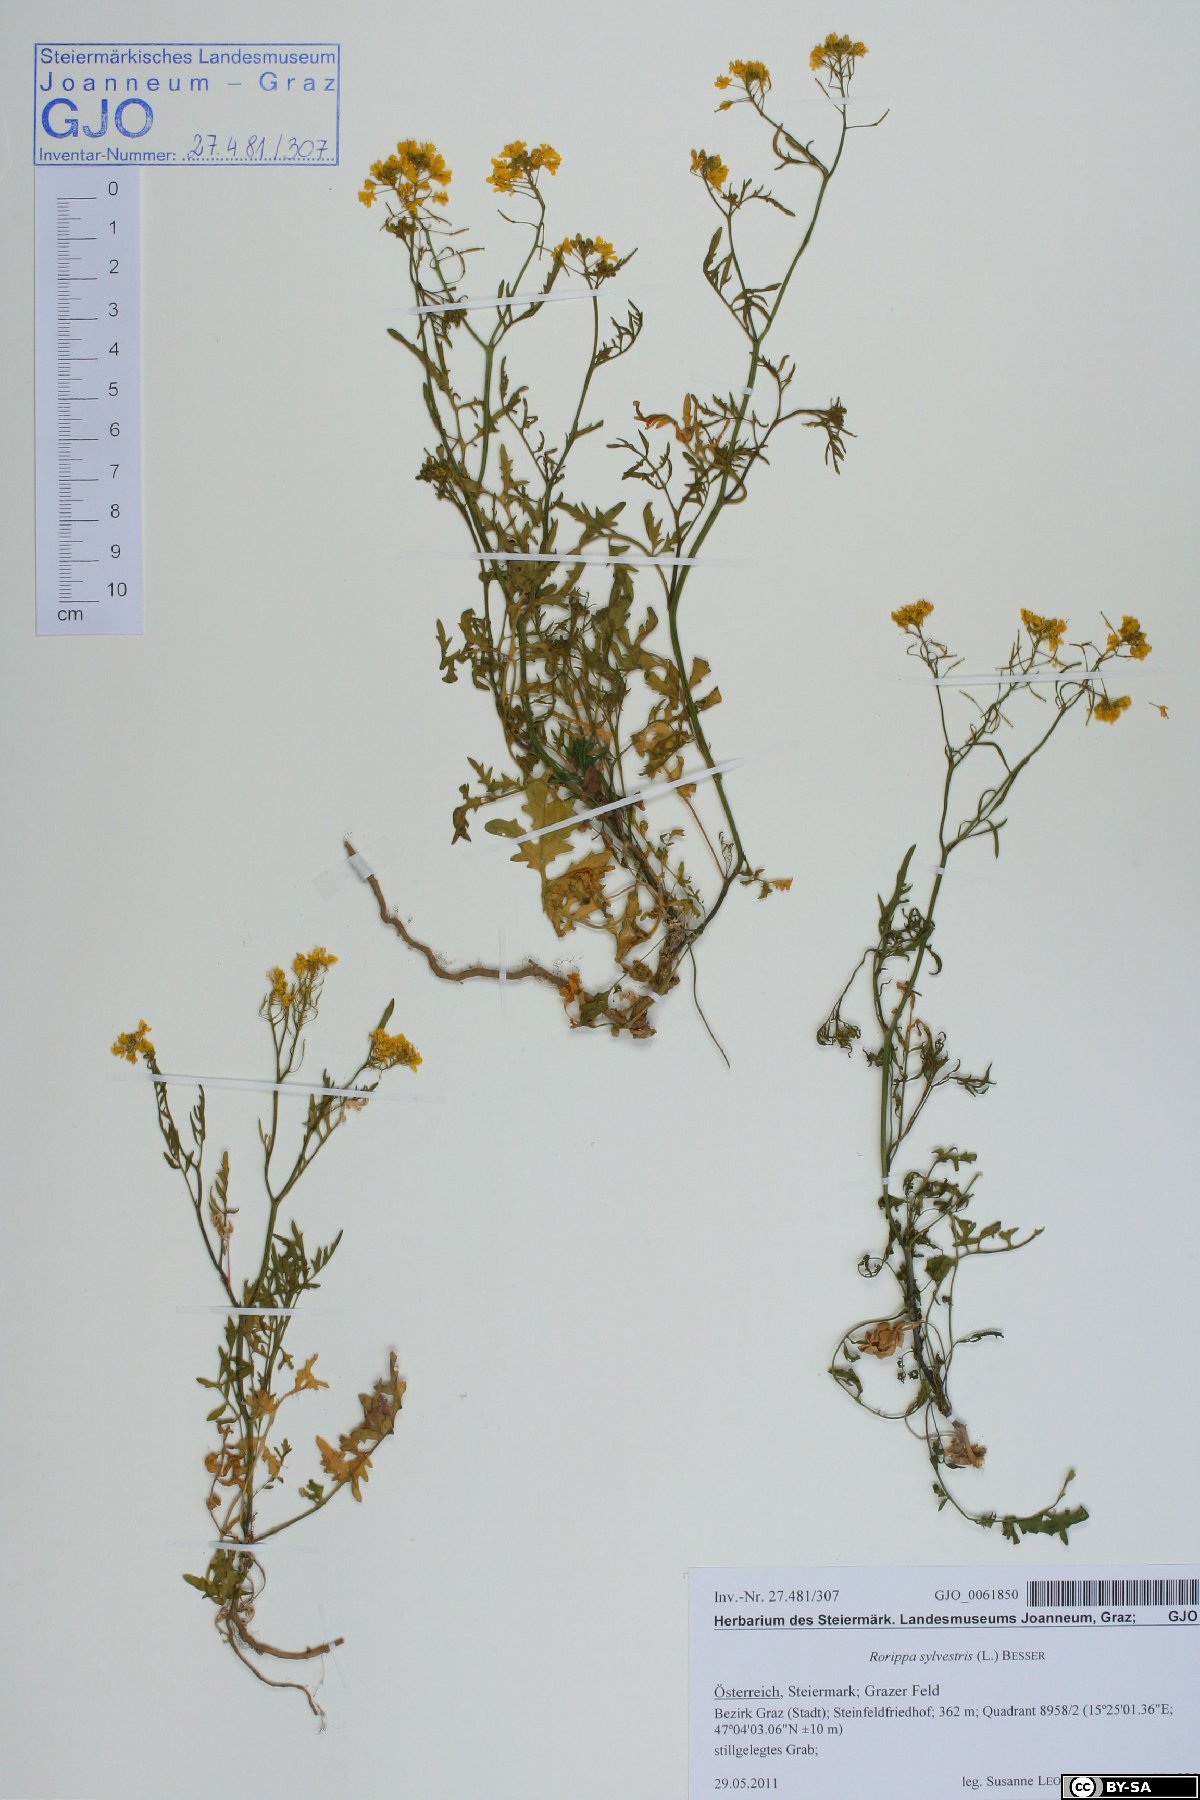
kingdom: Plantae
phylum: Tracheophyta
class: Magnoliopsida
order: Brassicales
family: Brassicaceae
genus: Rorippa
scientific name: Rorippa sylvestris
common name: Creeping yellowcress
